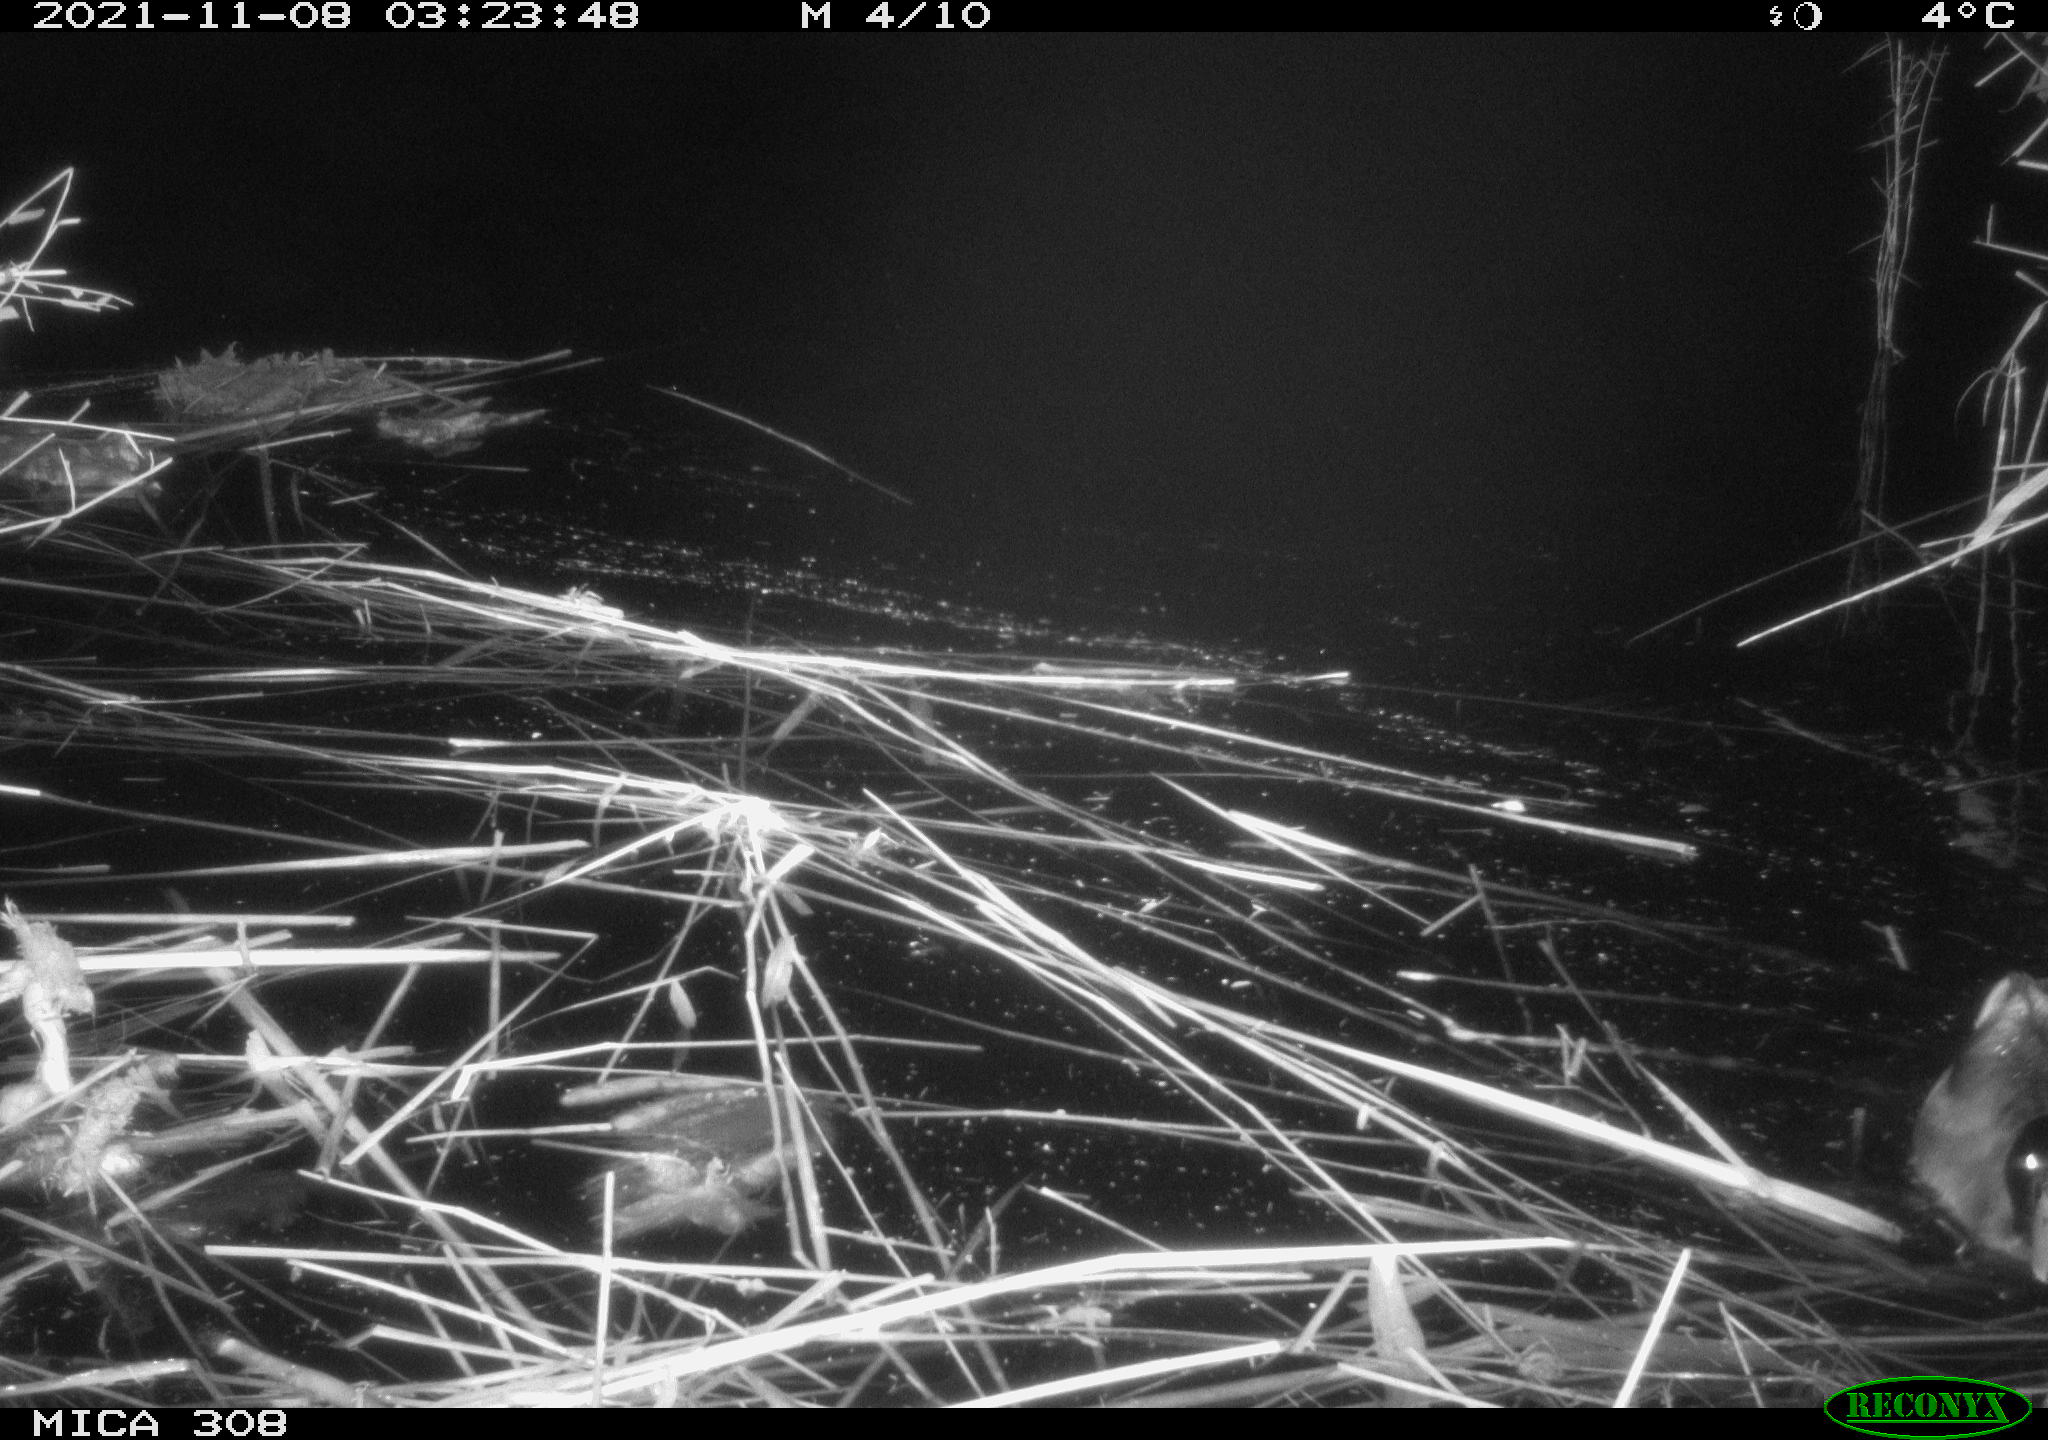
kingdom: Animalia
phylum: Chordata
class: Aves
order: Anseriformes
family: Anatidae
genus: Anas
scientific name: Anas platyrhynchos
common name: Mallard
